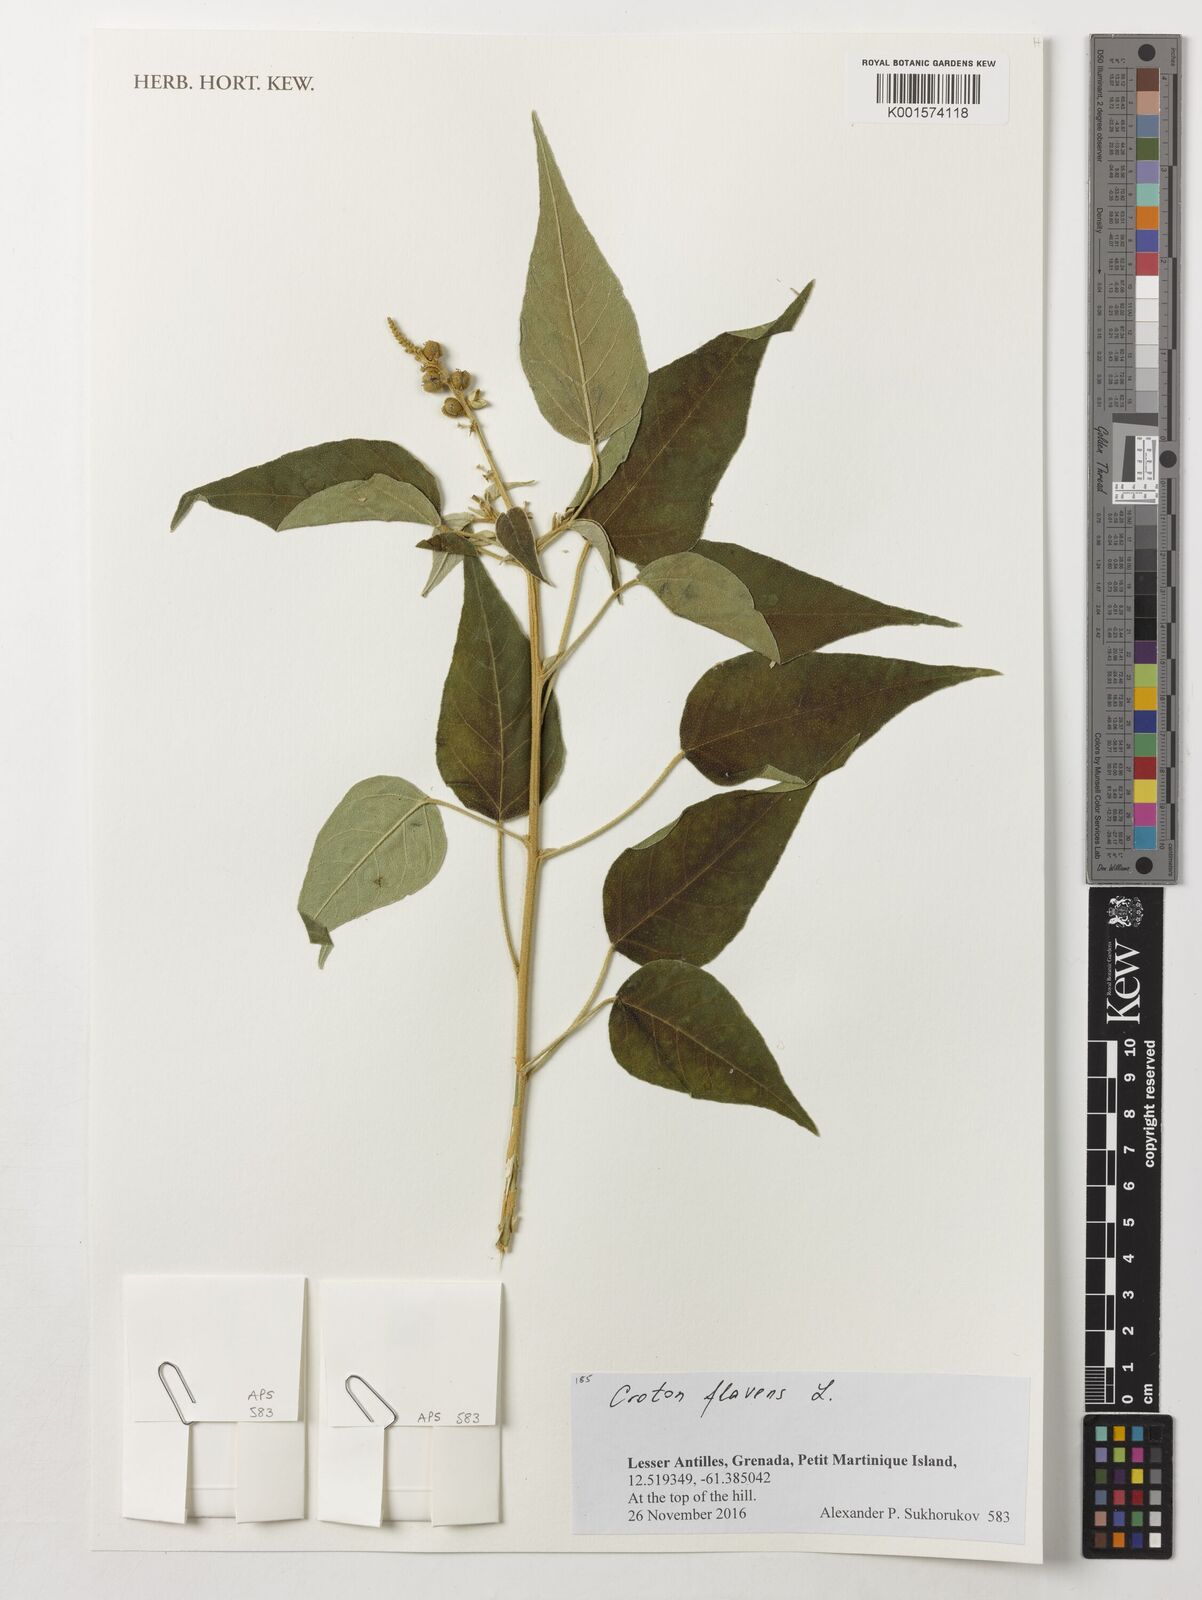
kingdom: Plantae
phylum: Tracheophyta
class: Magnoliopsida
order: Malpighiales
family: Euphorbiaceae
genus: Croton
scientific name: Croton flavens
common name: Yellow balsam
